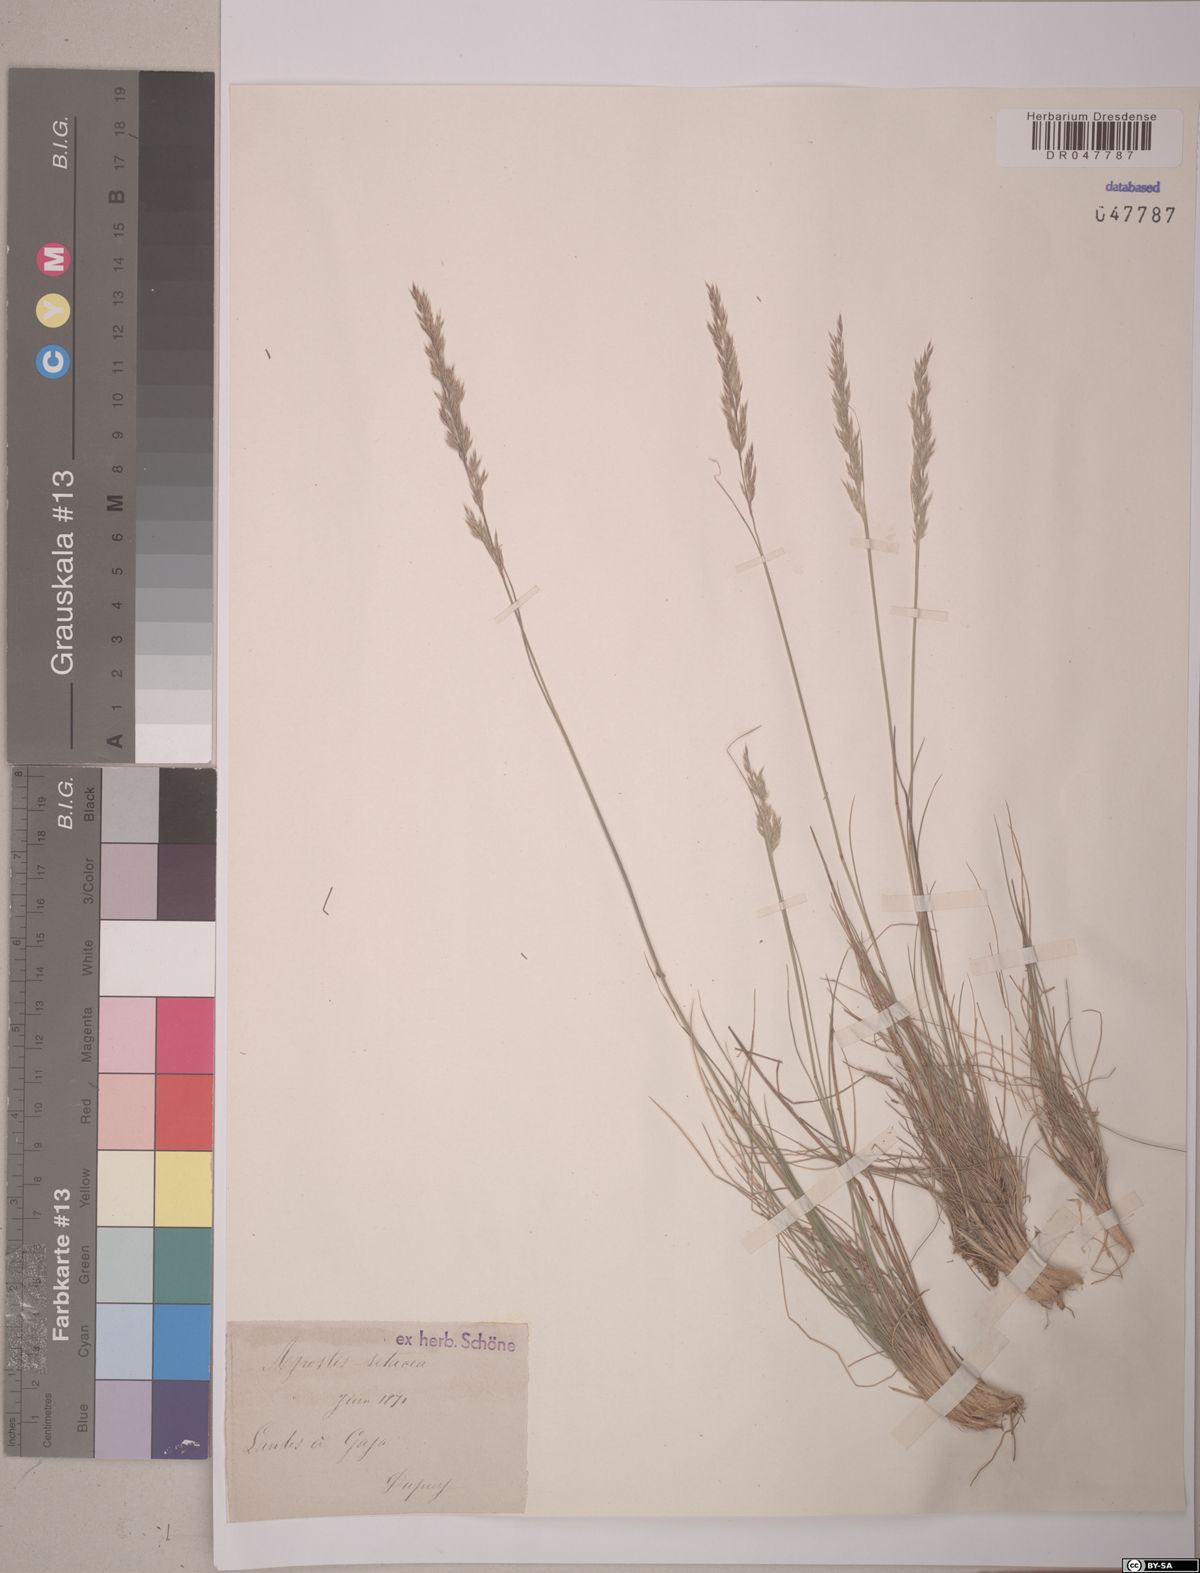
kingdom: Plantae
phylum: Tracheophyta
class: Liliopsida
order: Poales
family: Poaceae
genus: Agrostis
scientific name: Agrostis rupestris
